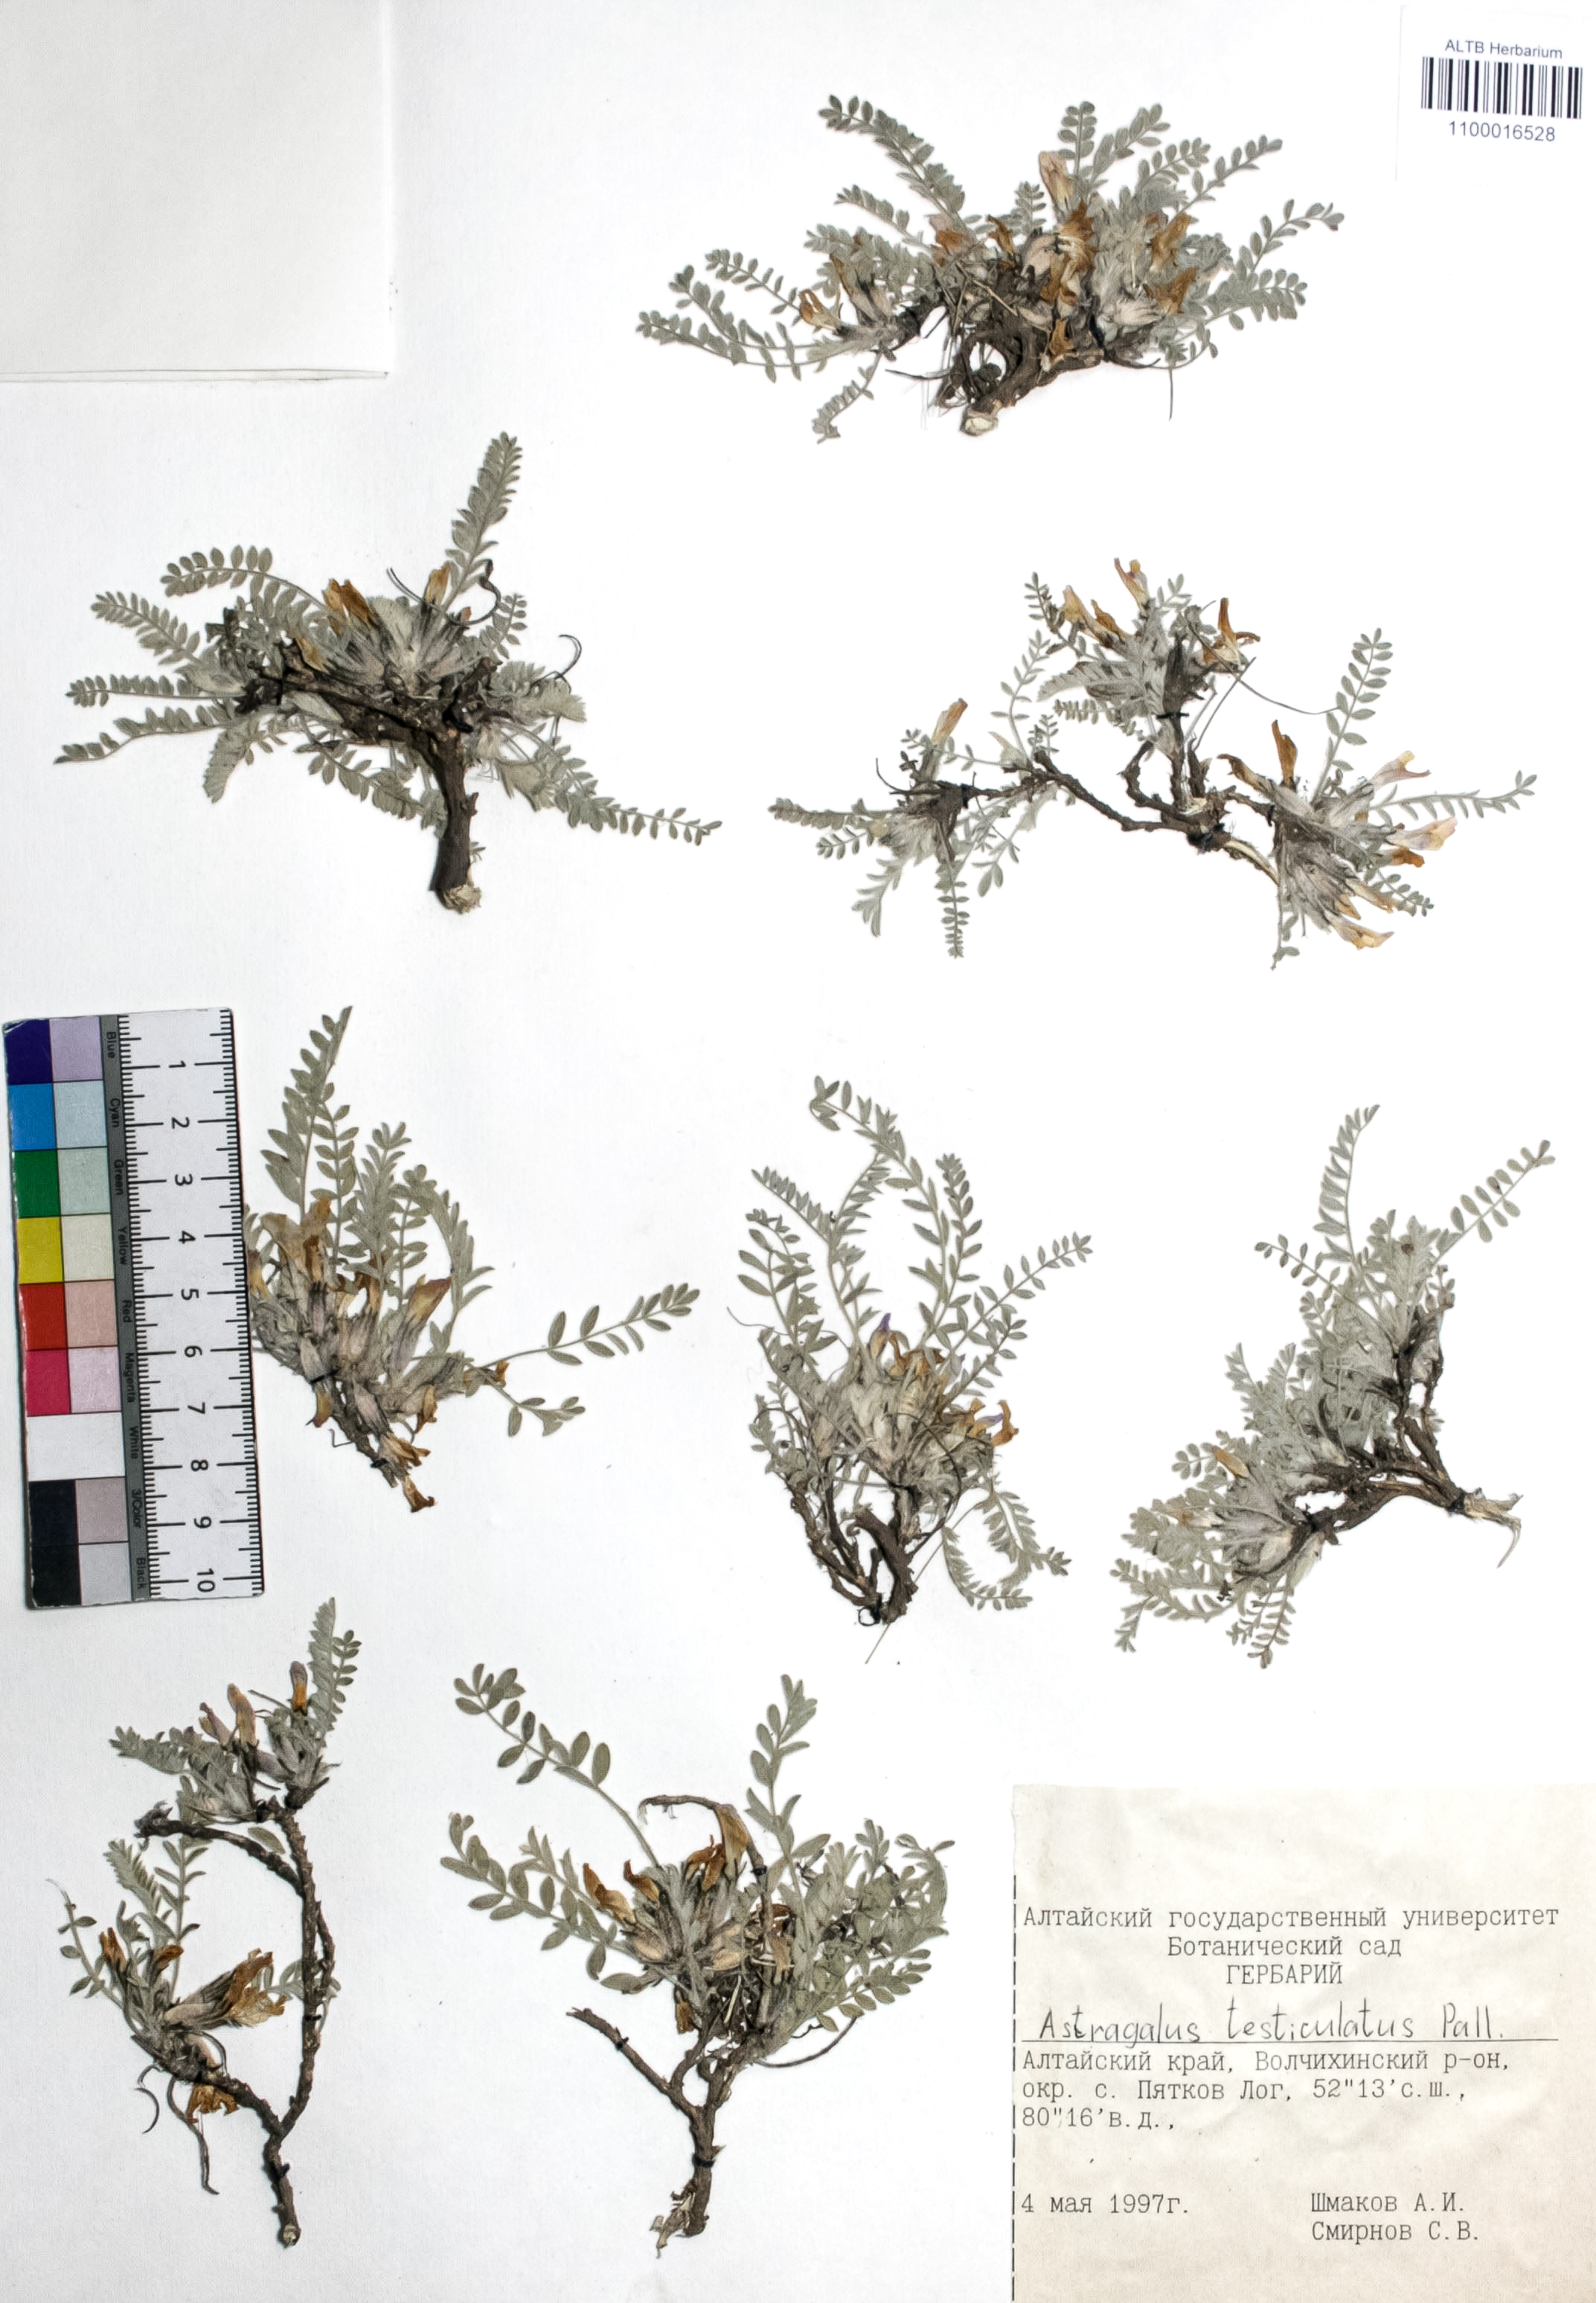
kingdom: Plantae
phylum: Tracheophyta
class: Magnoliopsida
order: Fabales
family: Fabaceae
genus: Astragalus
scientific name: Astragalus testiculatus
